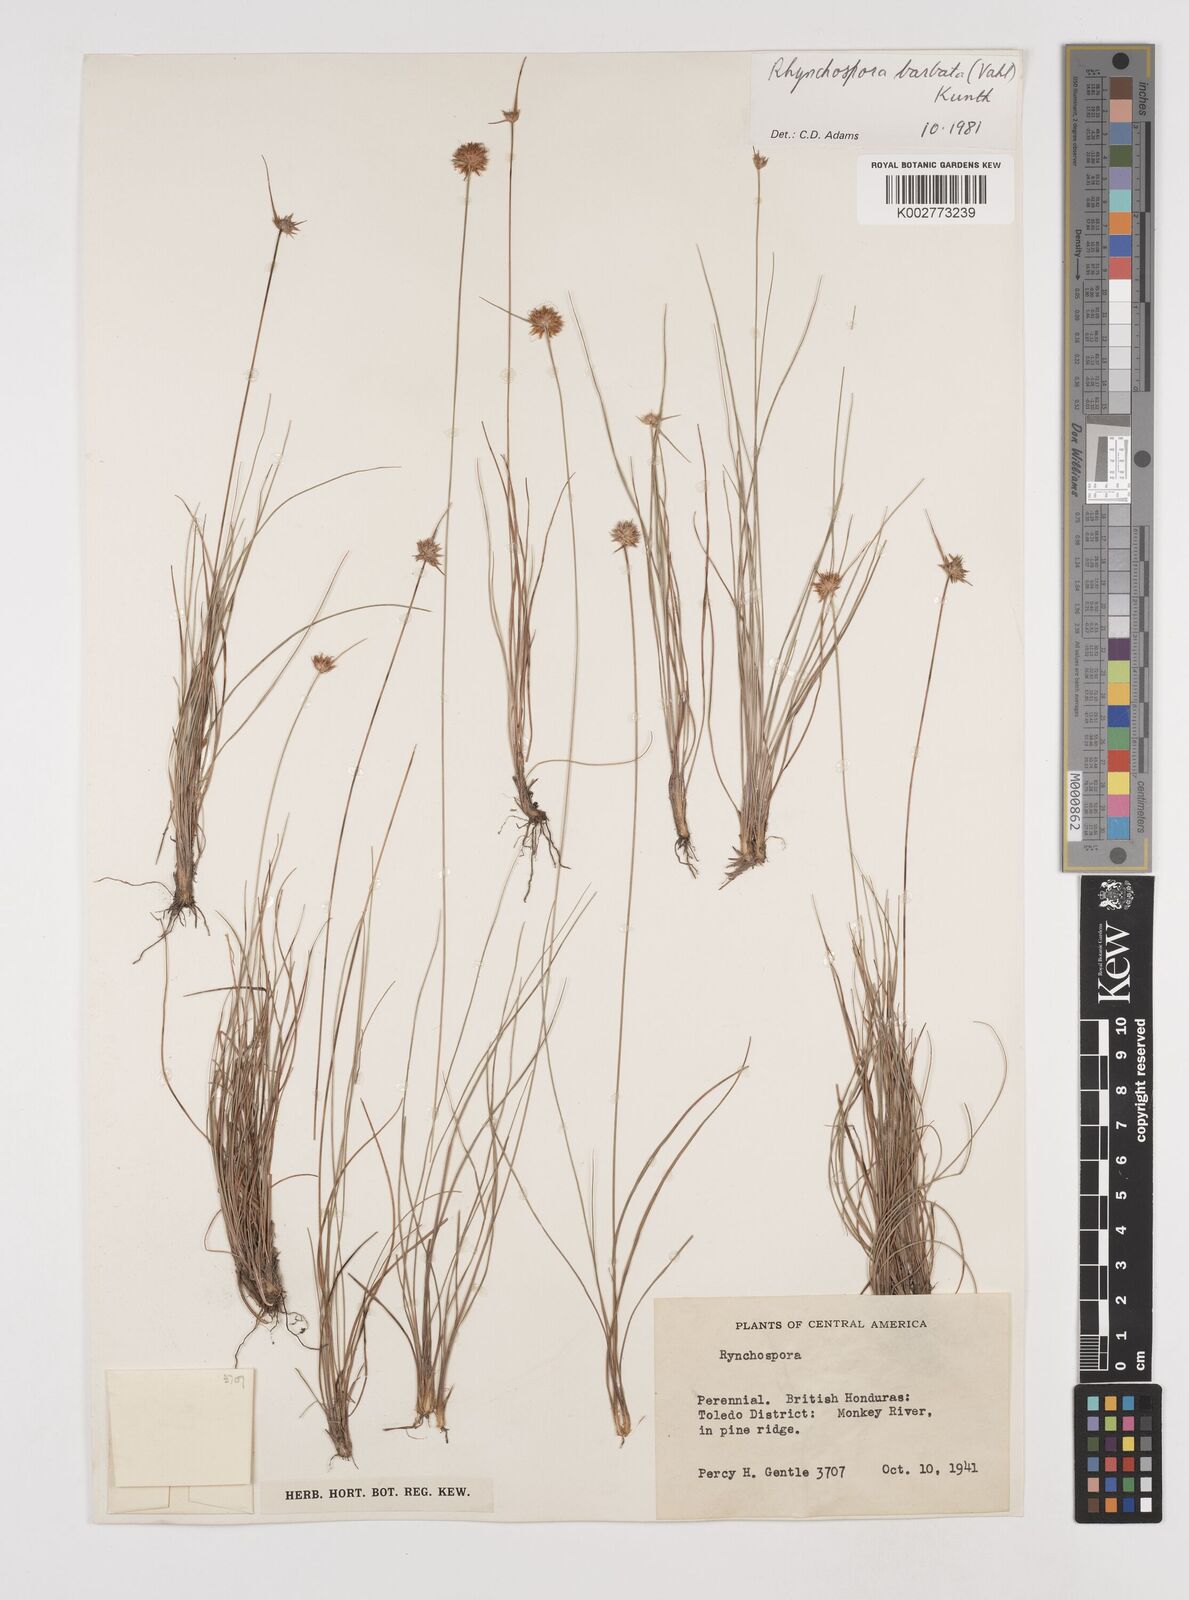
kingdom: Plantae
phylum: Tracheophyta
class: Liliopsida
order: Poales
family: Cyperaceae
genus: Rhynchospora
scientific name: Rhynchospora barbata
